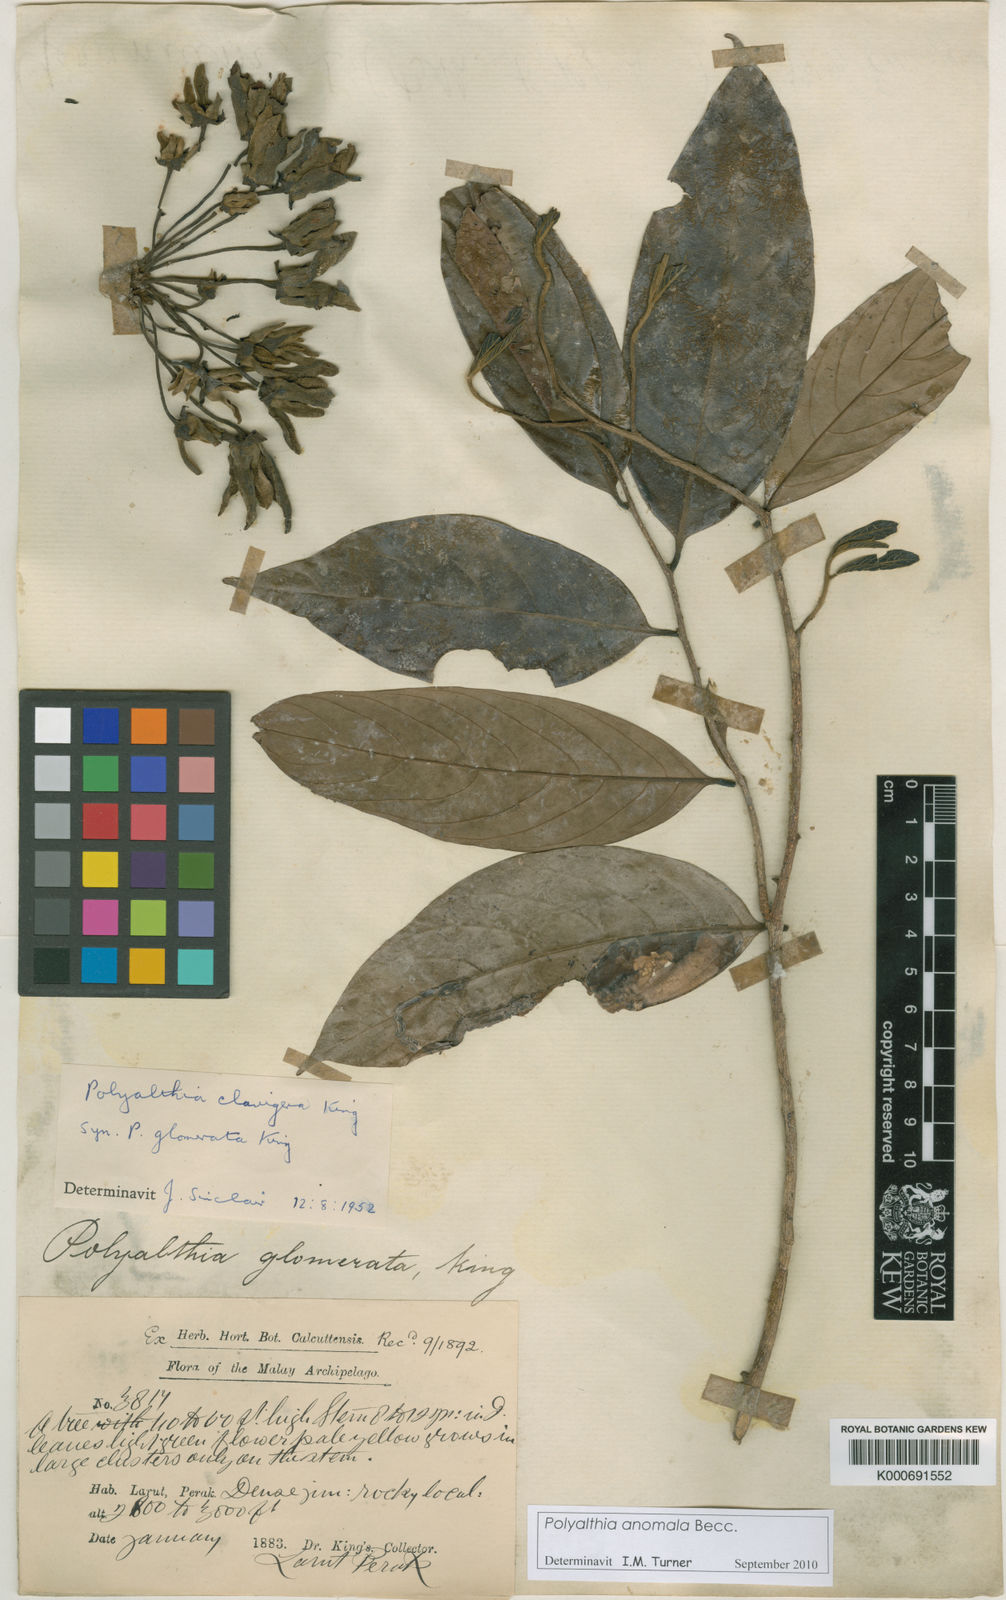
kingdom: Plantae
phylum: Tracheophyta
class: Magnoliopsida
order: Magnoliales
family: Annonaceae
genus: Polyalthia
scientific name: Polyalthia anomala
